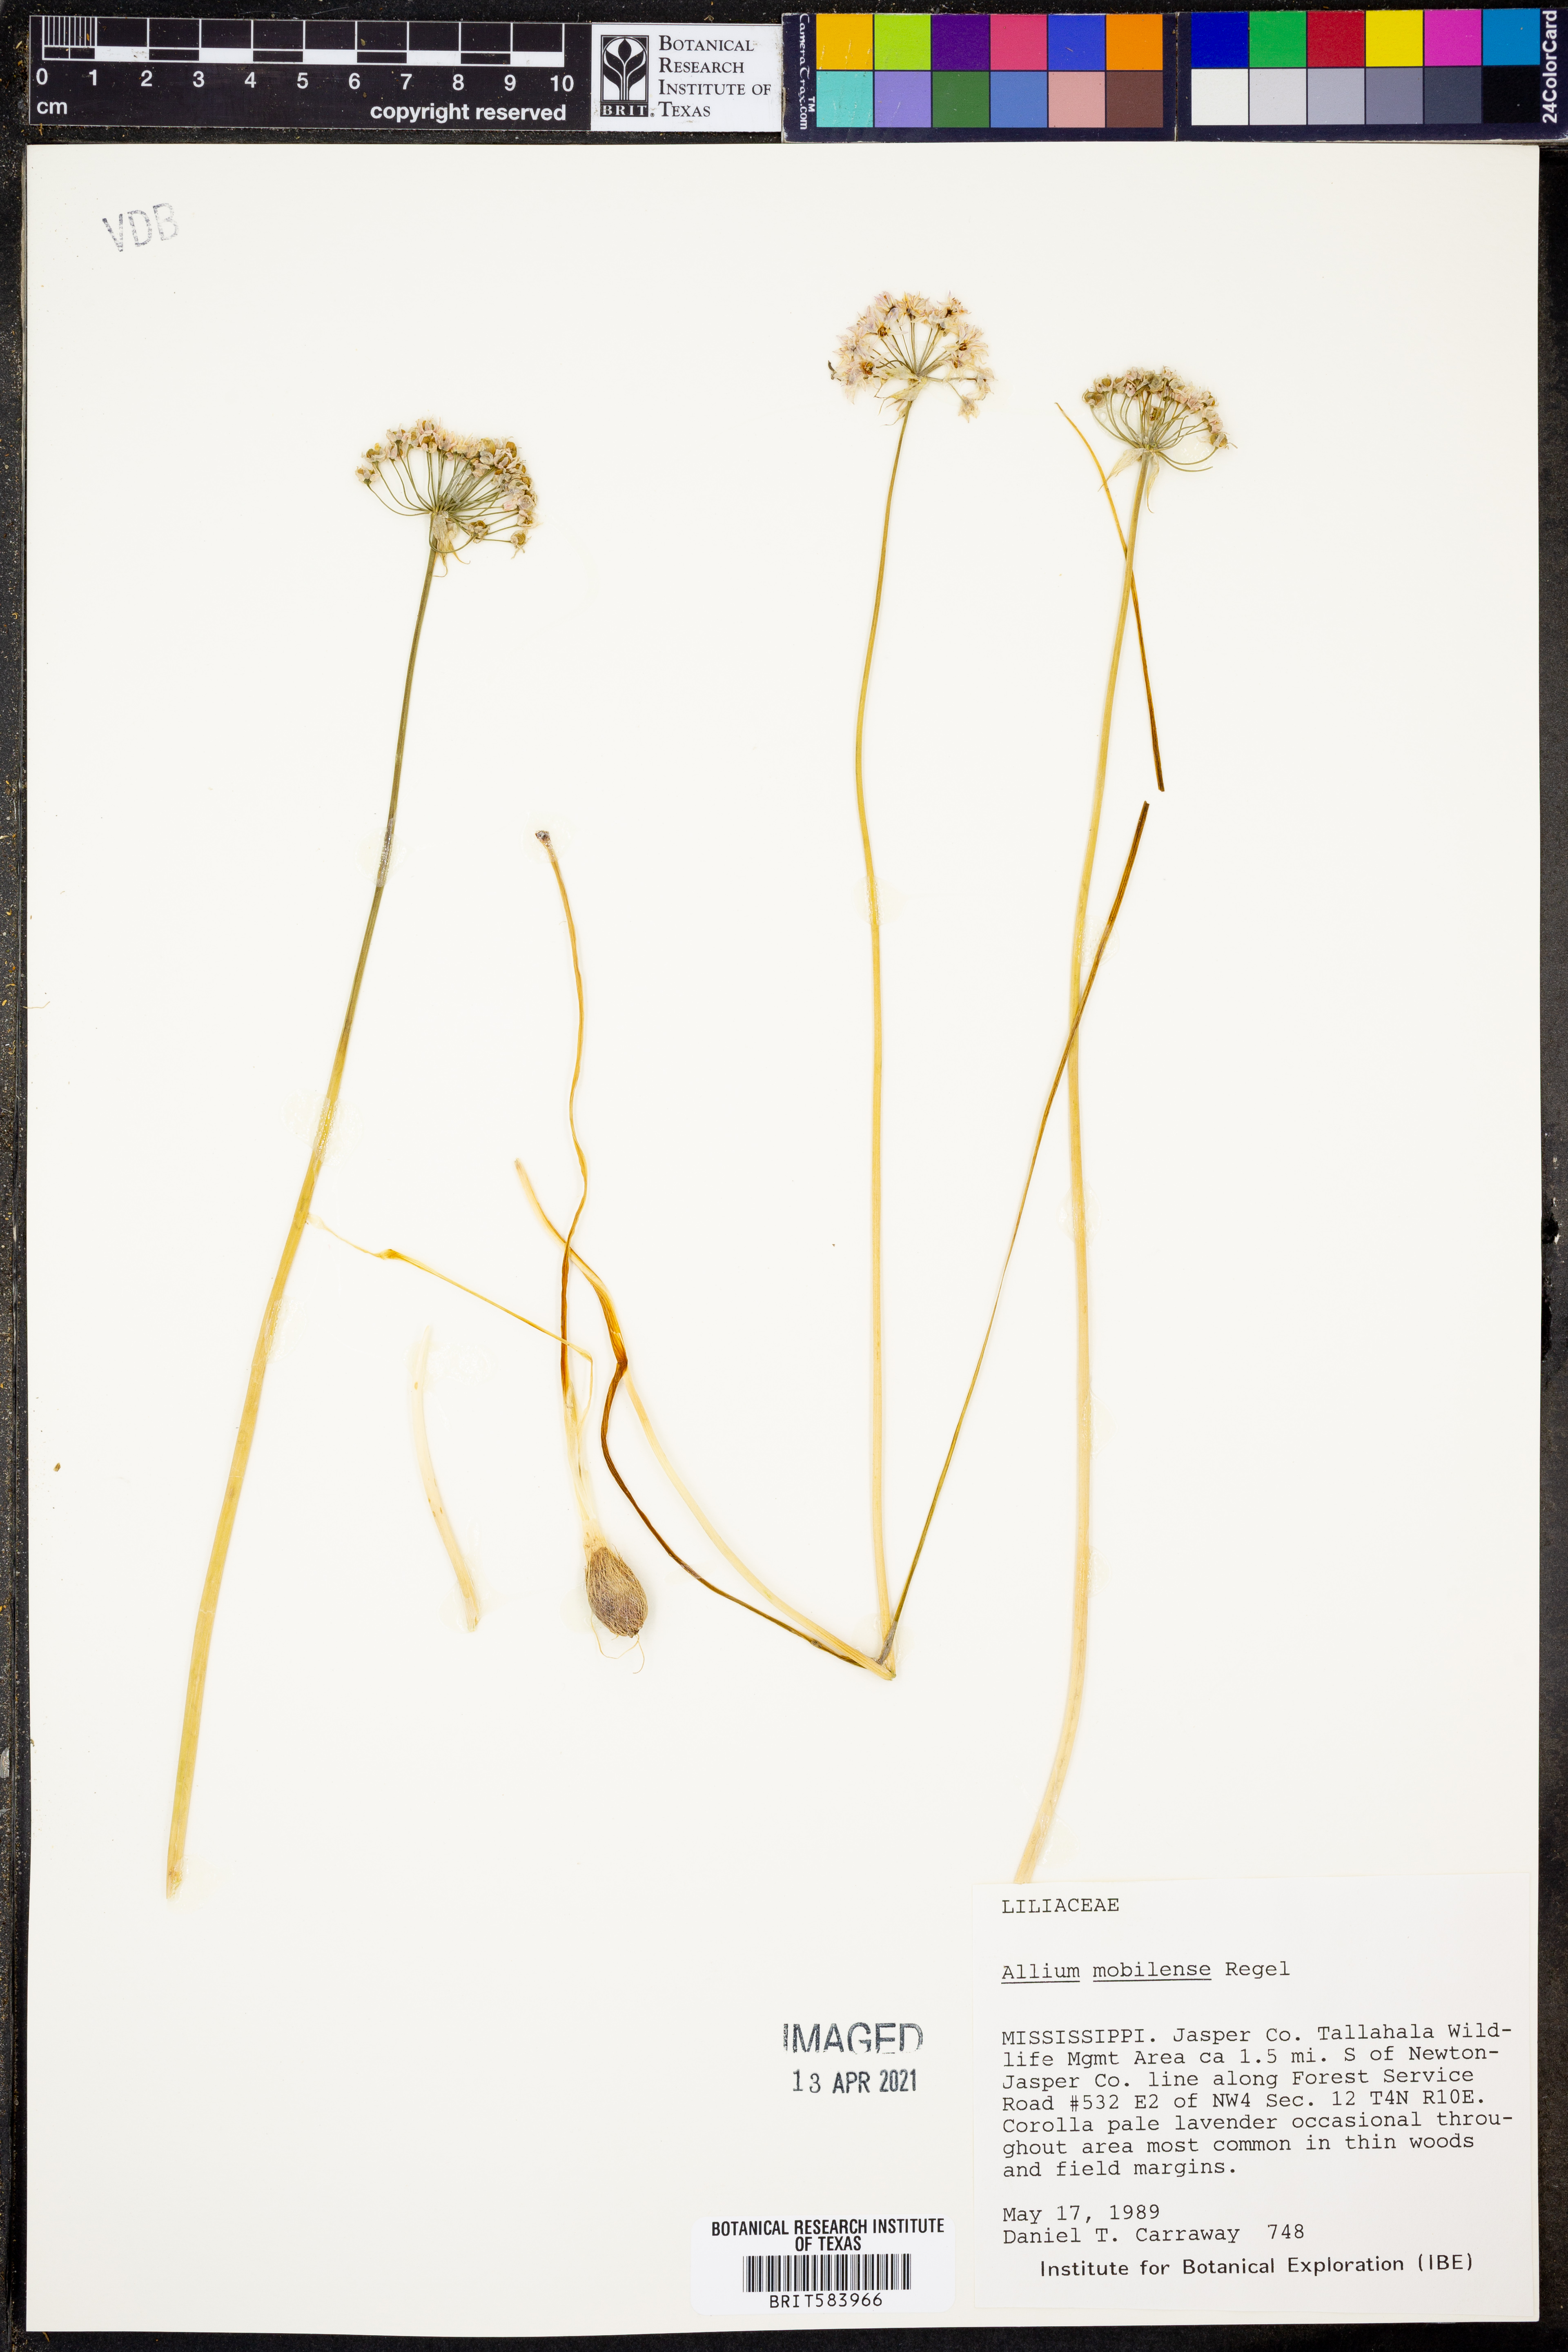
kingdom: Plantae
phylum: Tracheophyta
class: Liliopsida
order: Asparagales
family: Amaryllidaceae
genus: Allium
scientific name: Allium canadense
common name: Meadow garlic
